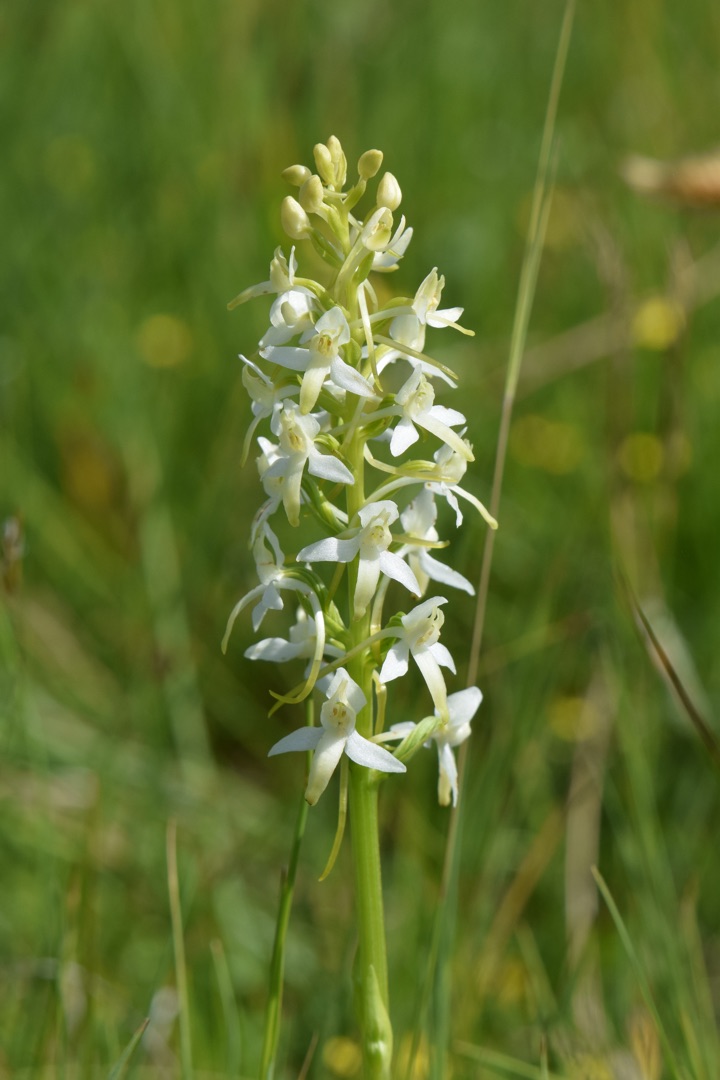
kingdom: Plantae
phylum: Tracheophyta
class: Liliopsida
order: Asparagales
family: Orchidaceae
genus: Platanthera
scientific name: Platanthera bifolia
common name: Bakke-gøgelilje
